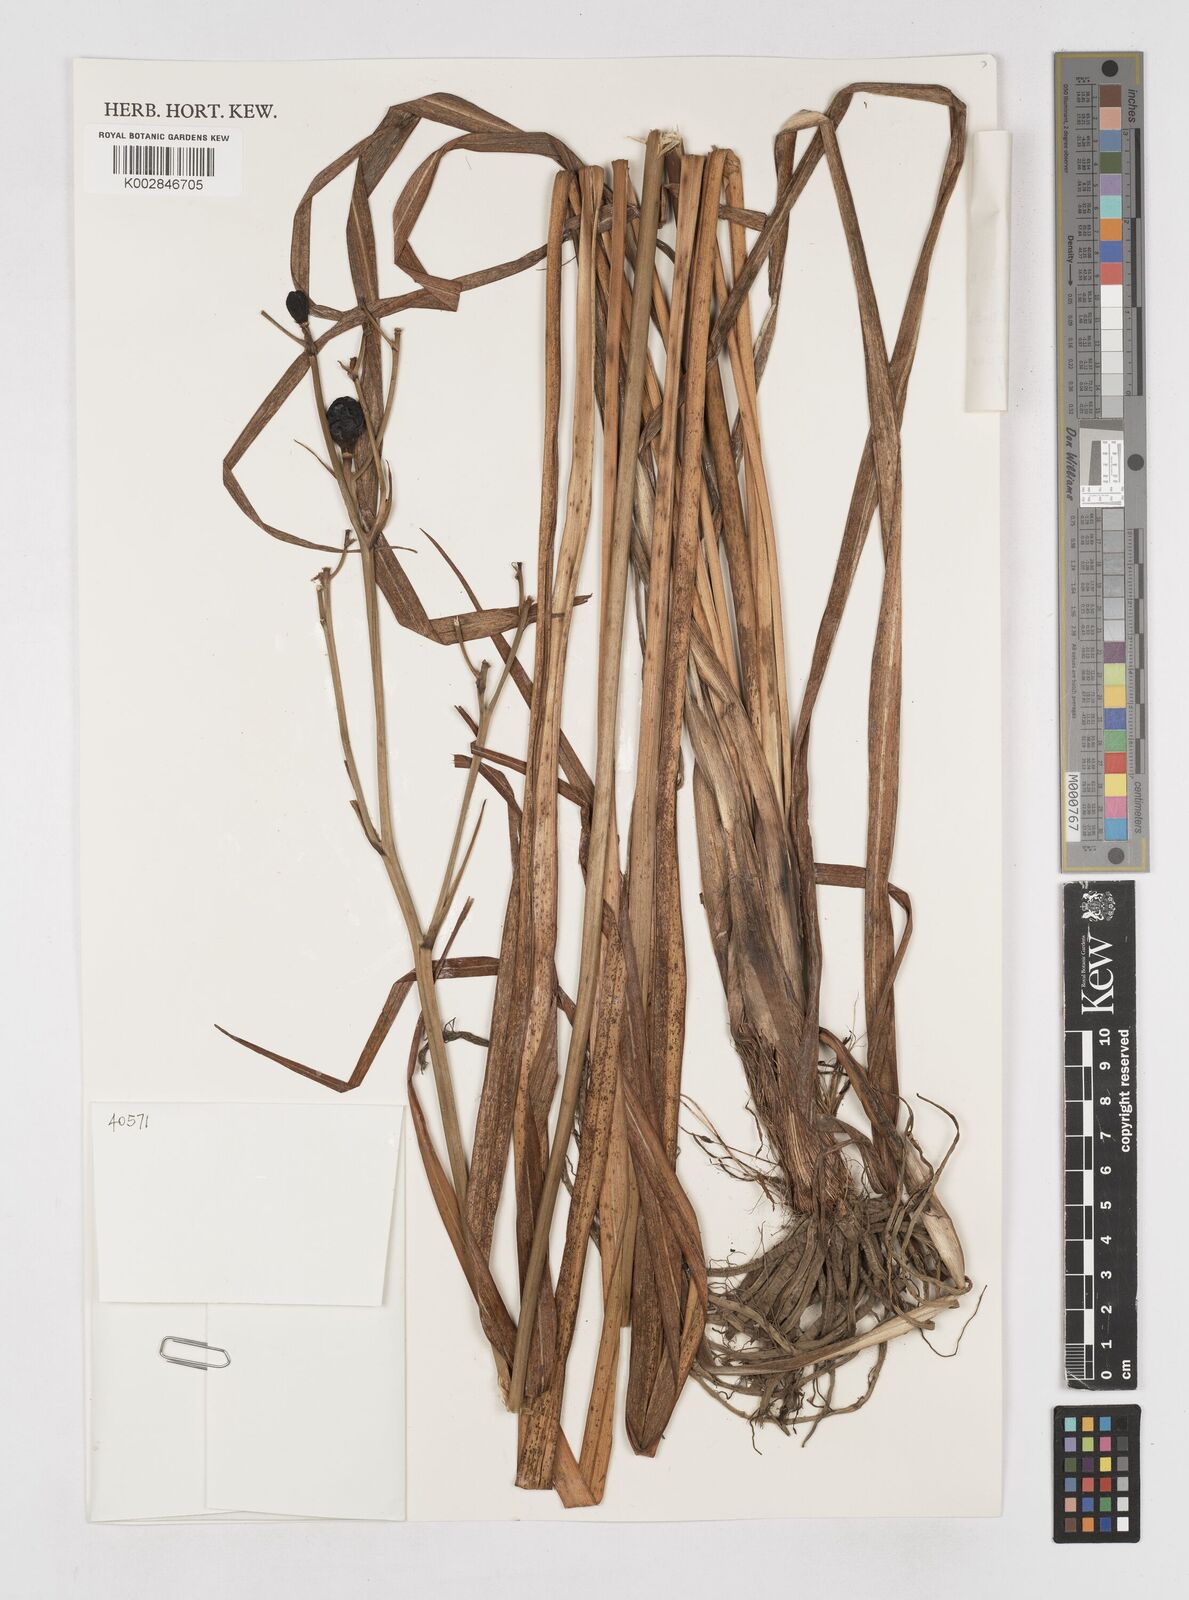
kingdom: Plantae
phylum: Tracheophyta
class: Liliopsida
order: Asparagales
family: Asphodelaceae
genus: Hemerocallis
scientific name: Hemerocallis citrina
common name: Citron day-lily
